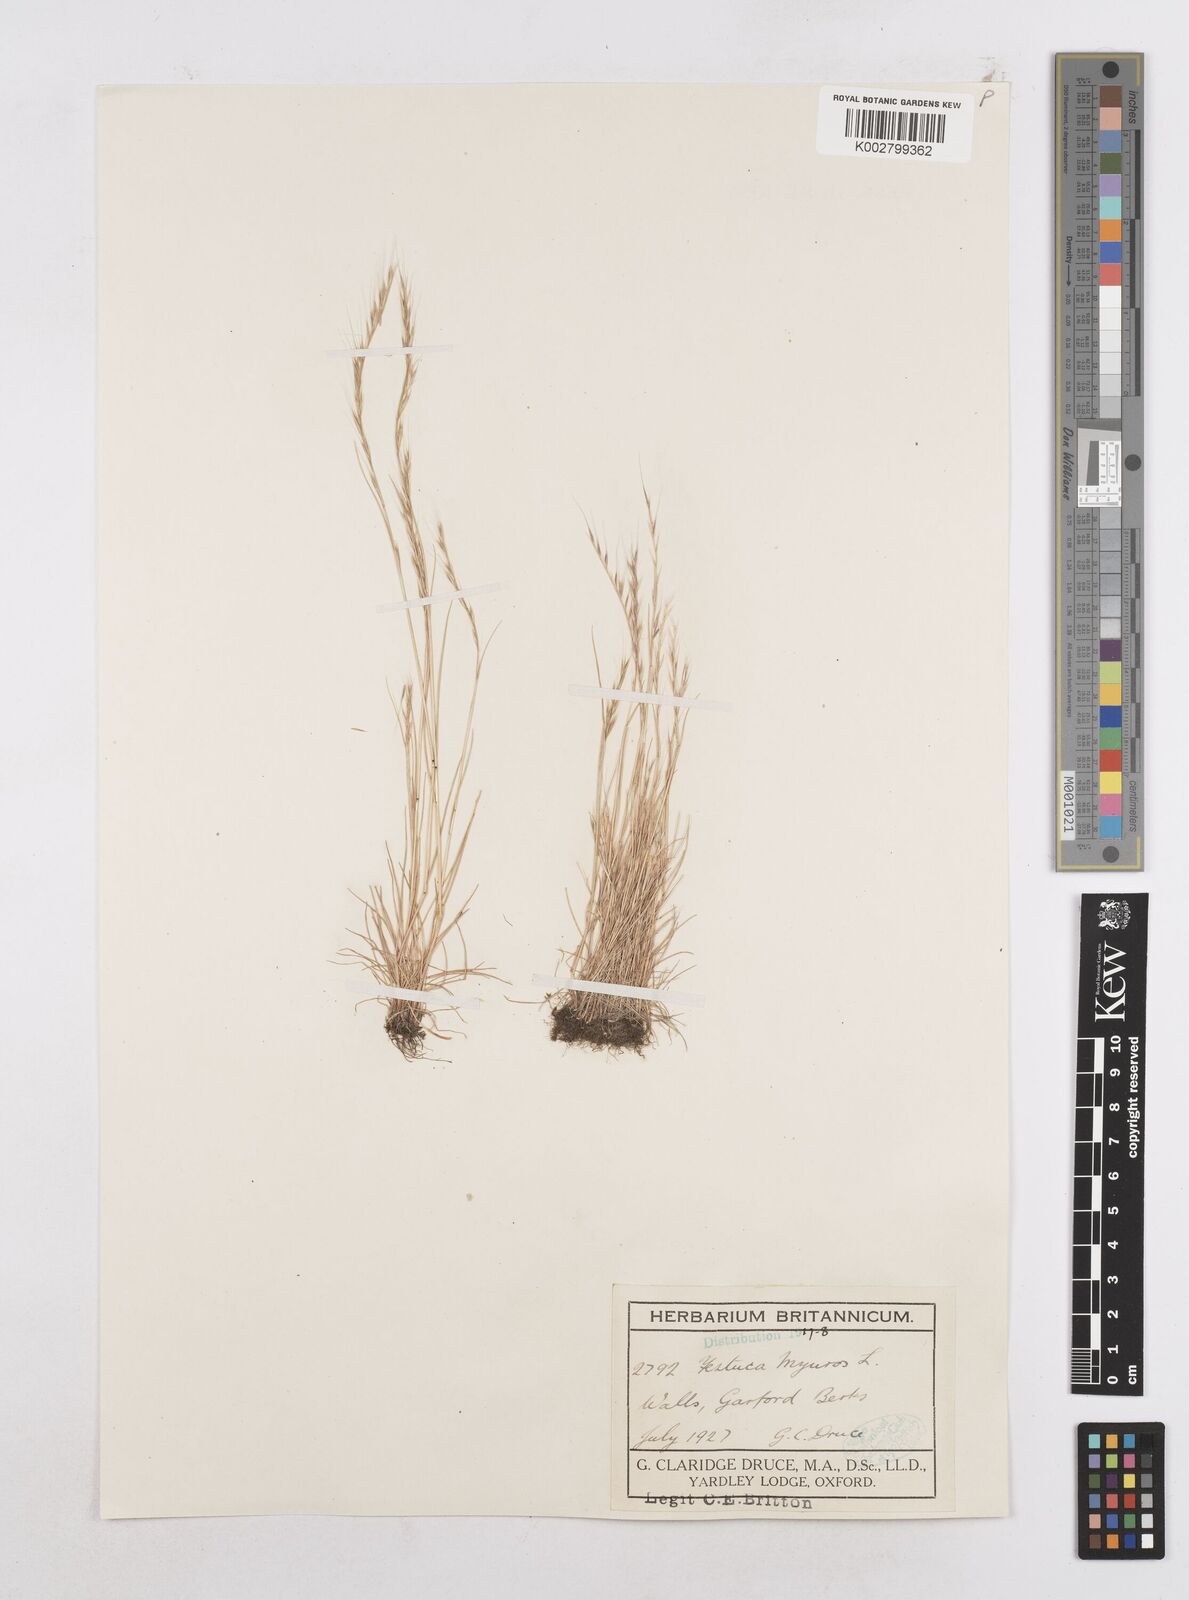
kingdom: Plantae
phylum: Tracheophyta
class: Liliopsida
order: Poales
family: Poaceae
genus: Festuca
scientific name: Festuca myuros
